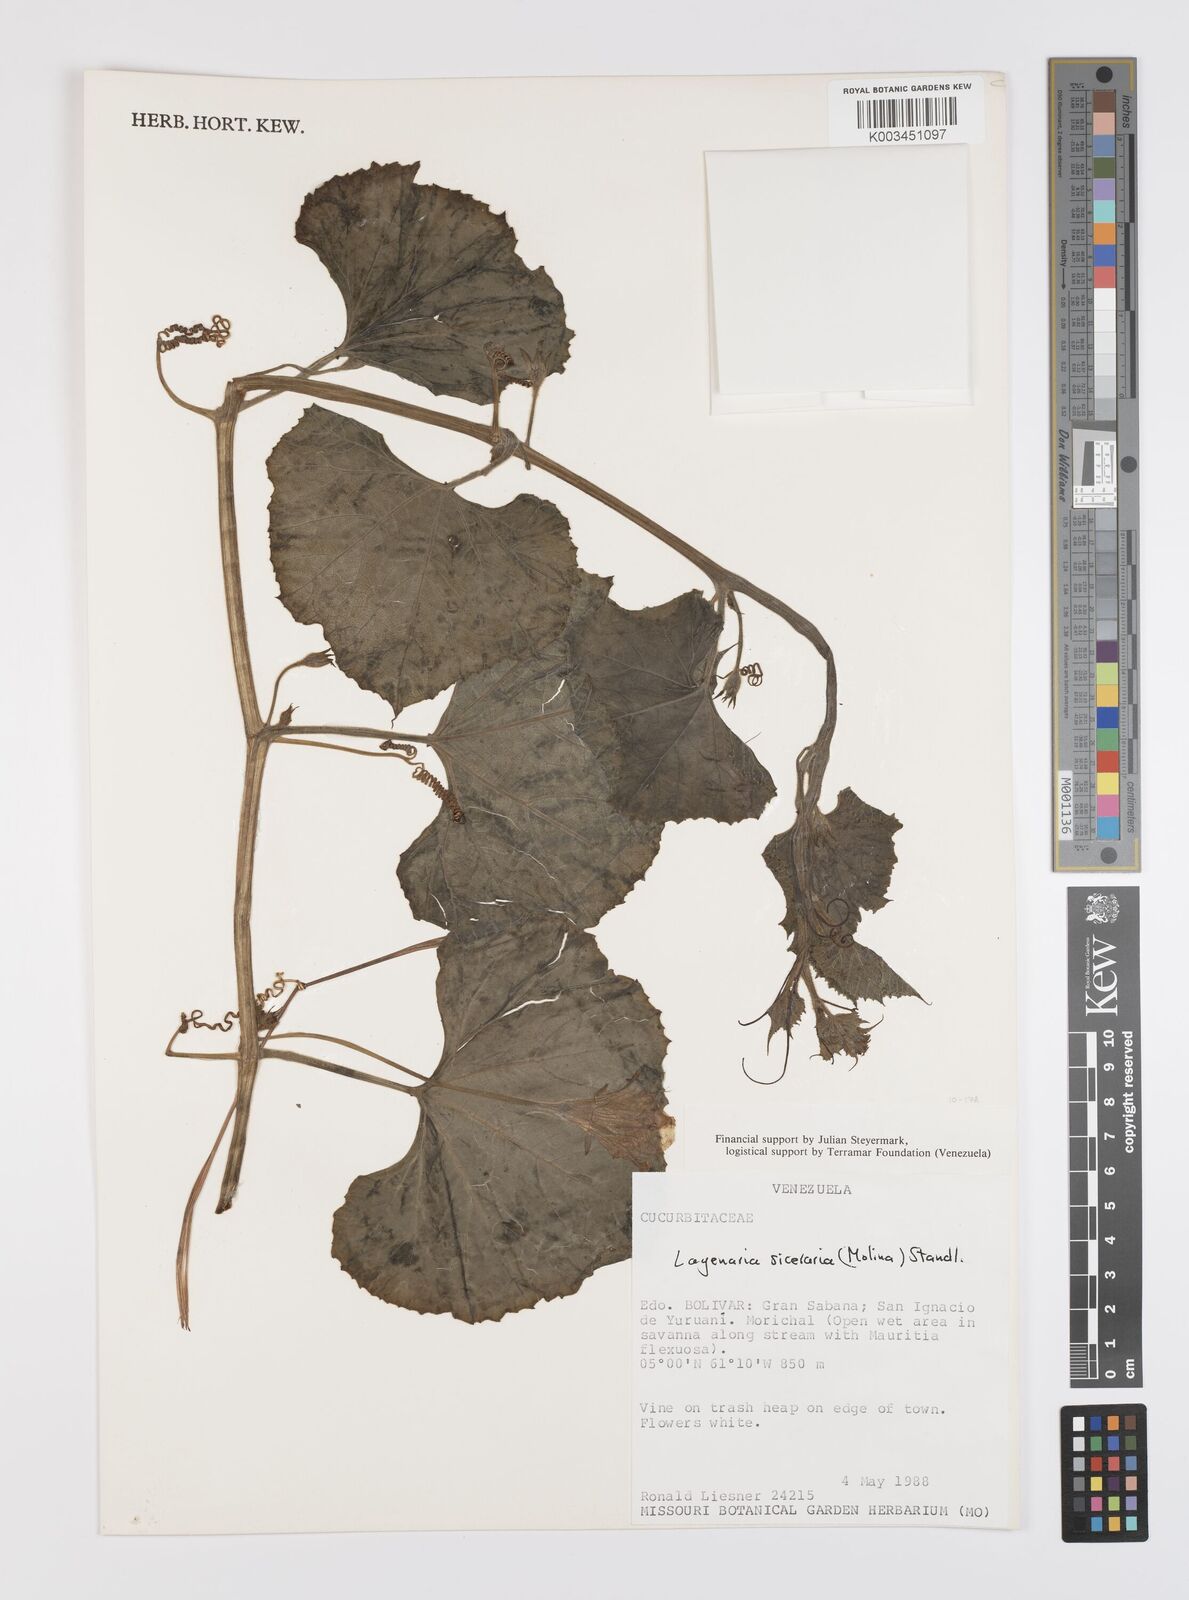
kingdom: Plantae
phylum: Tracheophyta
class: Magnoliopsida
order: Cucurbitales
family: Cucurbitaceae
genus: Lagenaria
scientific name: Lagenaria siceraria
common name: Bottle gourd
